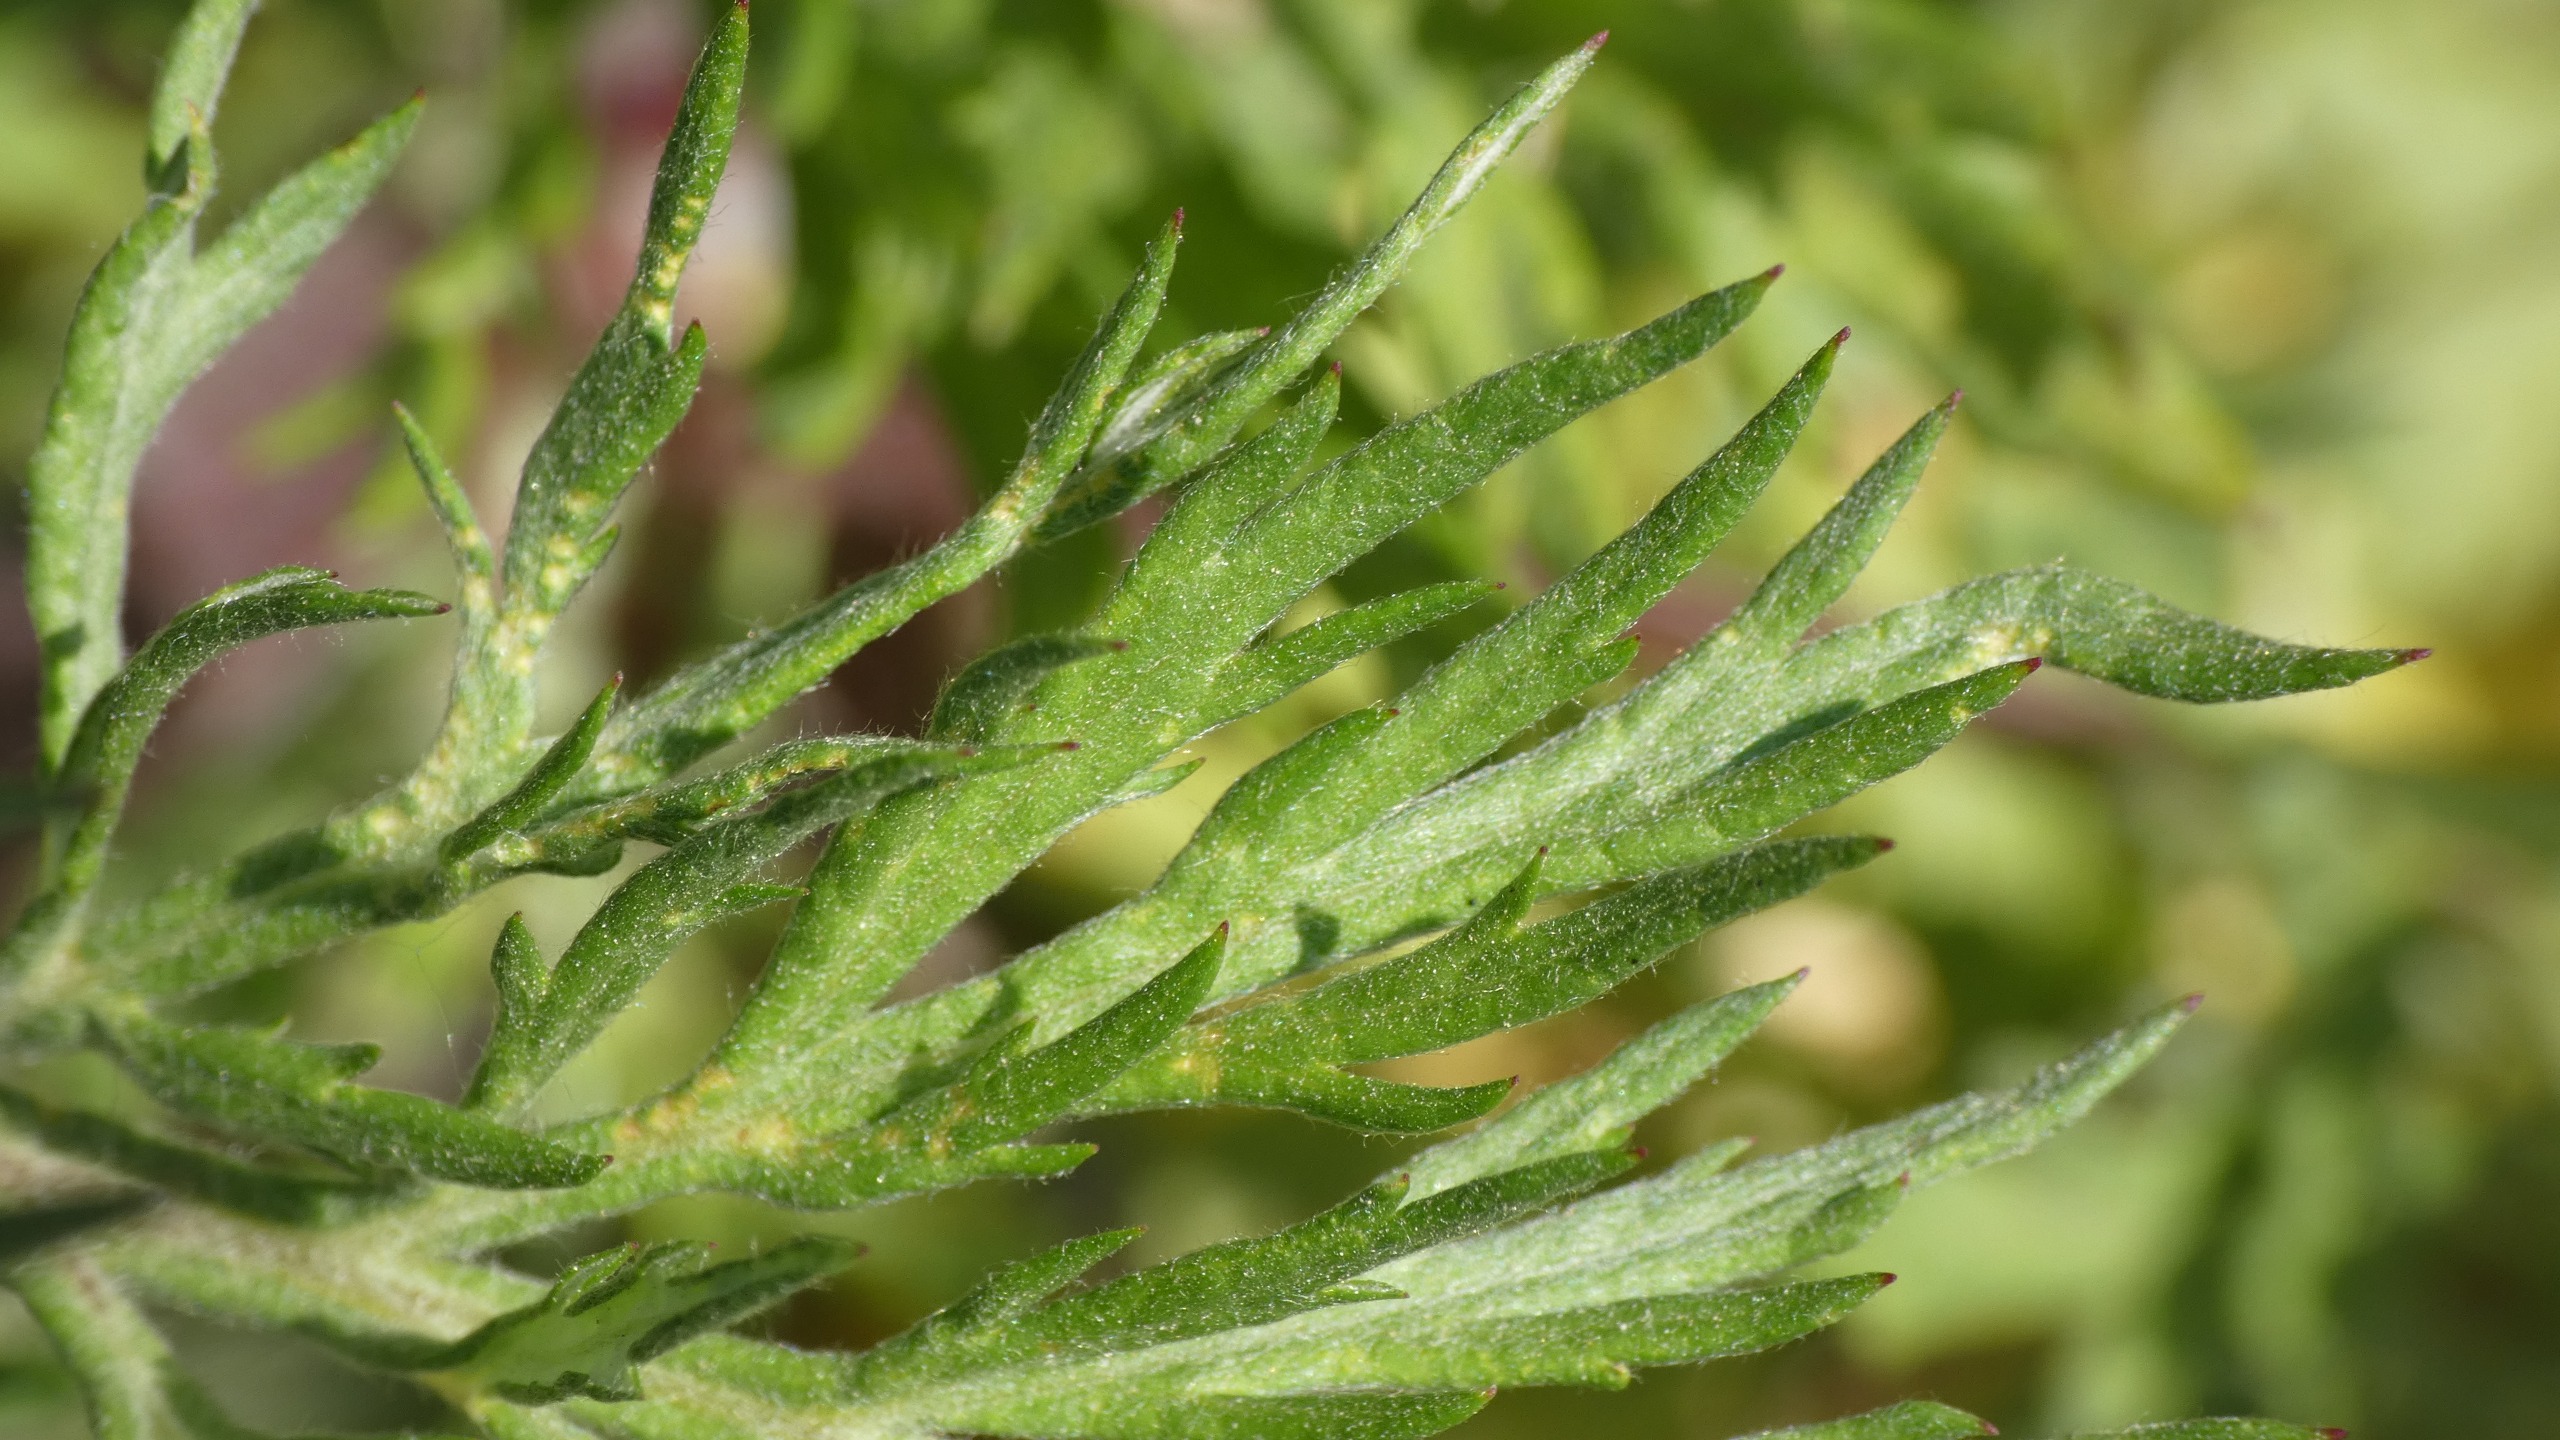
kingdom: Plantae
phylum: Tracheophyta
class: Magnoliopsida
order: Asterales
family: Asteraceae
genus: Artemisia
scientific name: Artemisia vulgaris
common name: Grå-bynke
